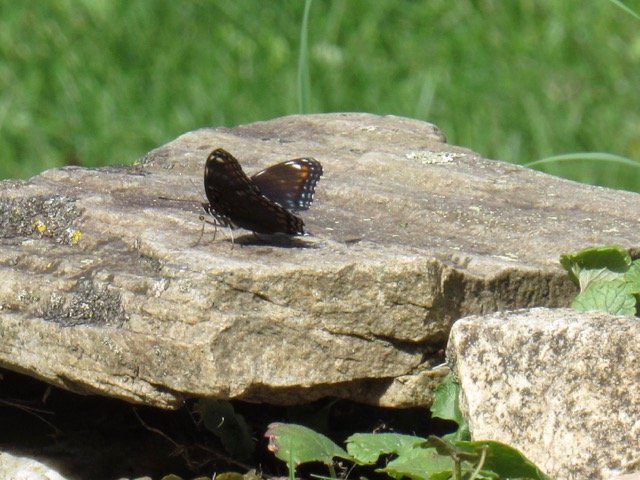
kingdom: Animalia
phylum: Arthropoda
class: Insecta
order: Lepidoptera
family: Nymphalidae
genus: Limenitis
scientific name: Limenitis
